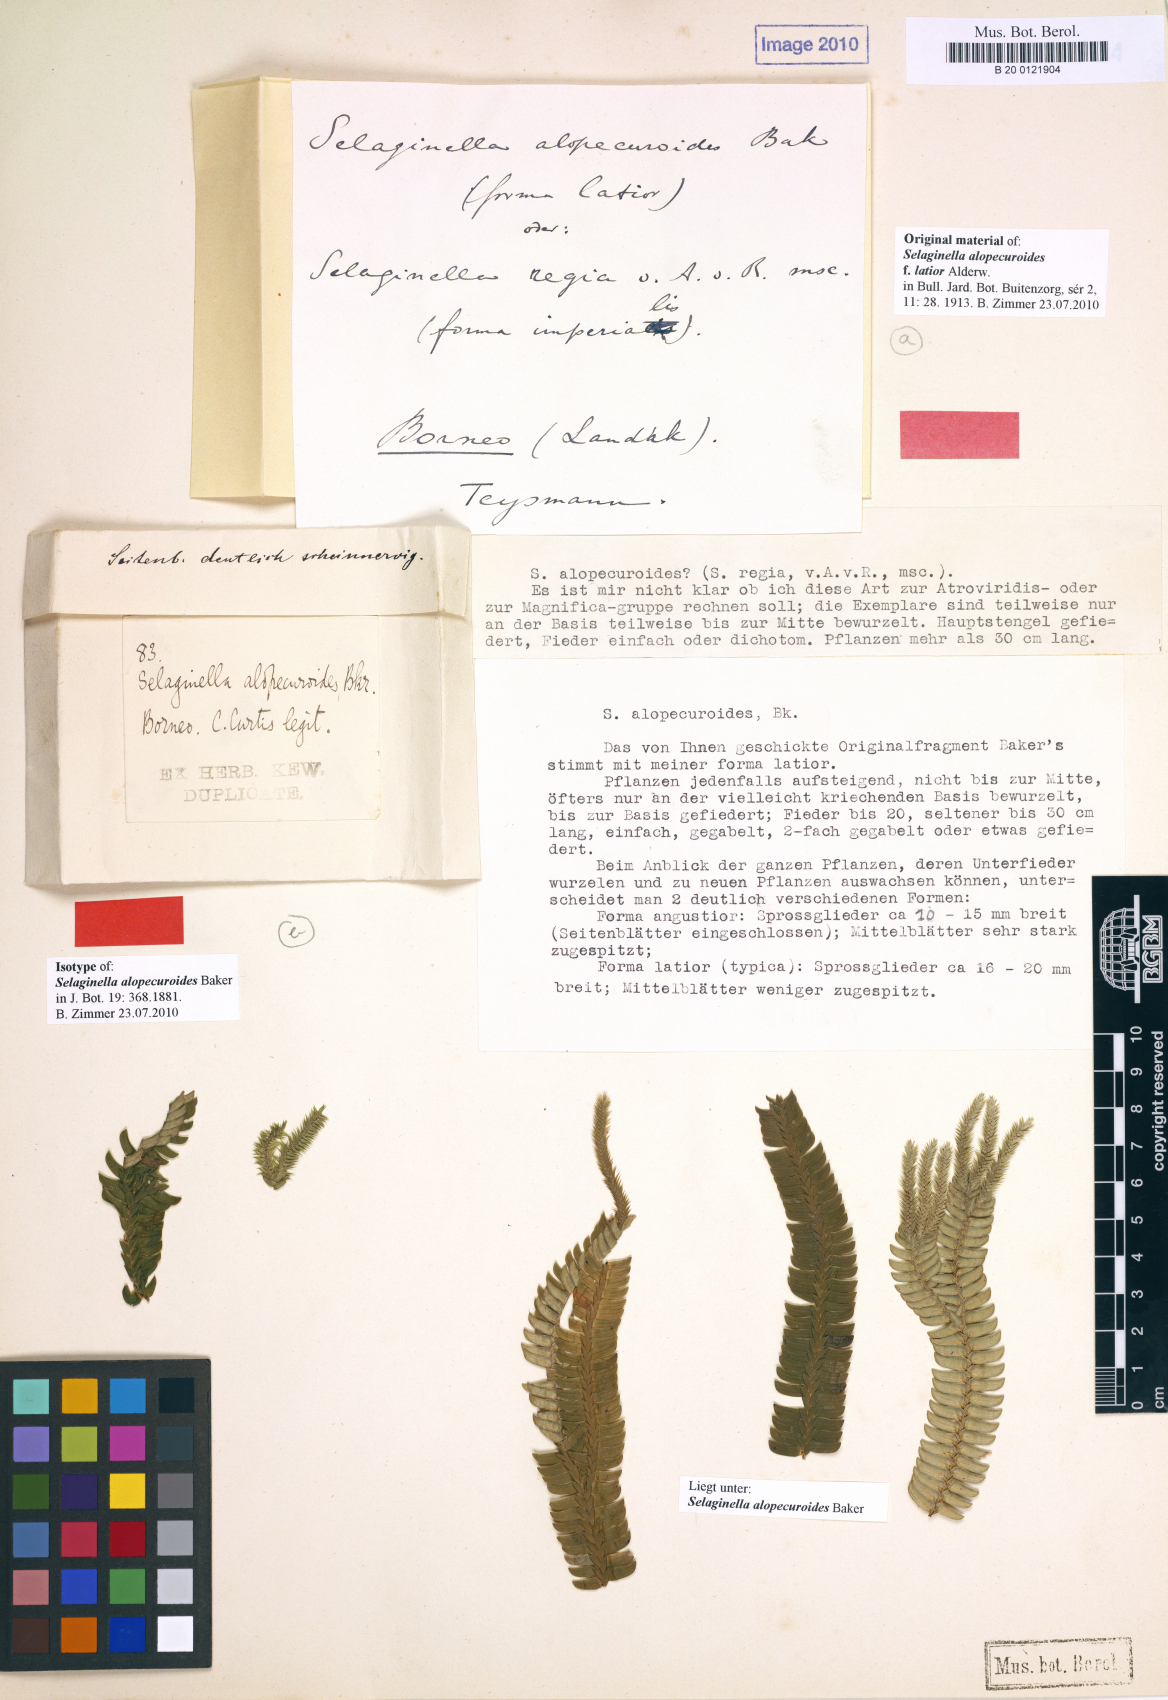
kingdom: Plantae
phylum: Tracheophyta
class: Lycopodiopsida
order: Selaginellales
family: Selaginellaceae
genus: Selaginella
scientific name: Selaginella alopecuroides
